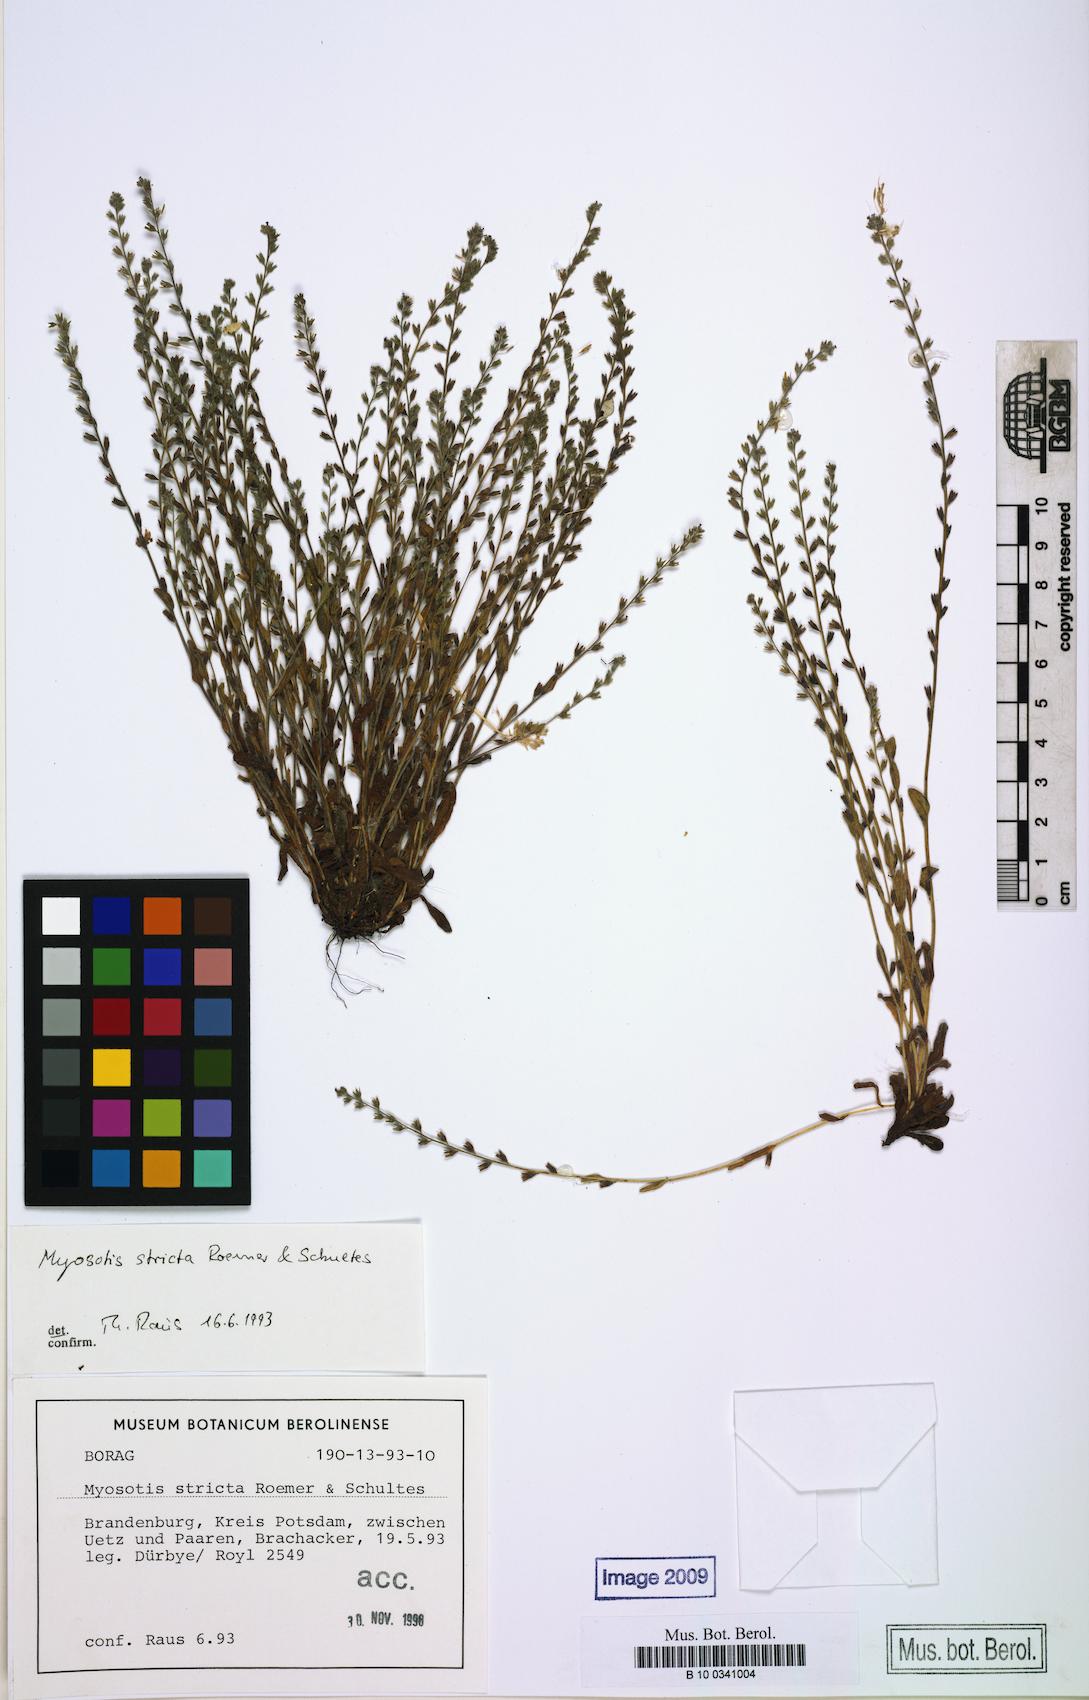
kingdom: Plantae
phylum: Tracheophyta
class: Magnoliopsida
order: Boraginales
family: Boraginaceae
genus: Myosotis
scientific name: Myosotis stricta
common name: Strict forget-me-not
